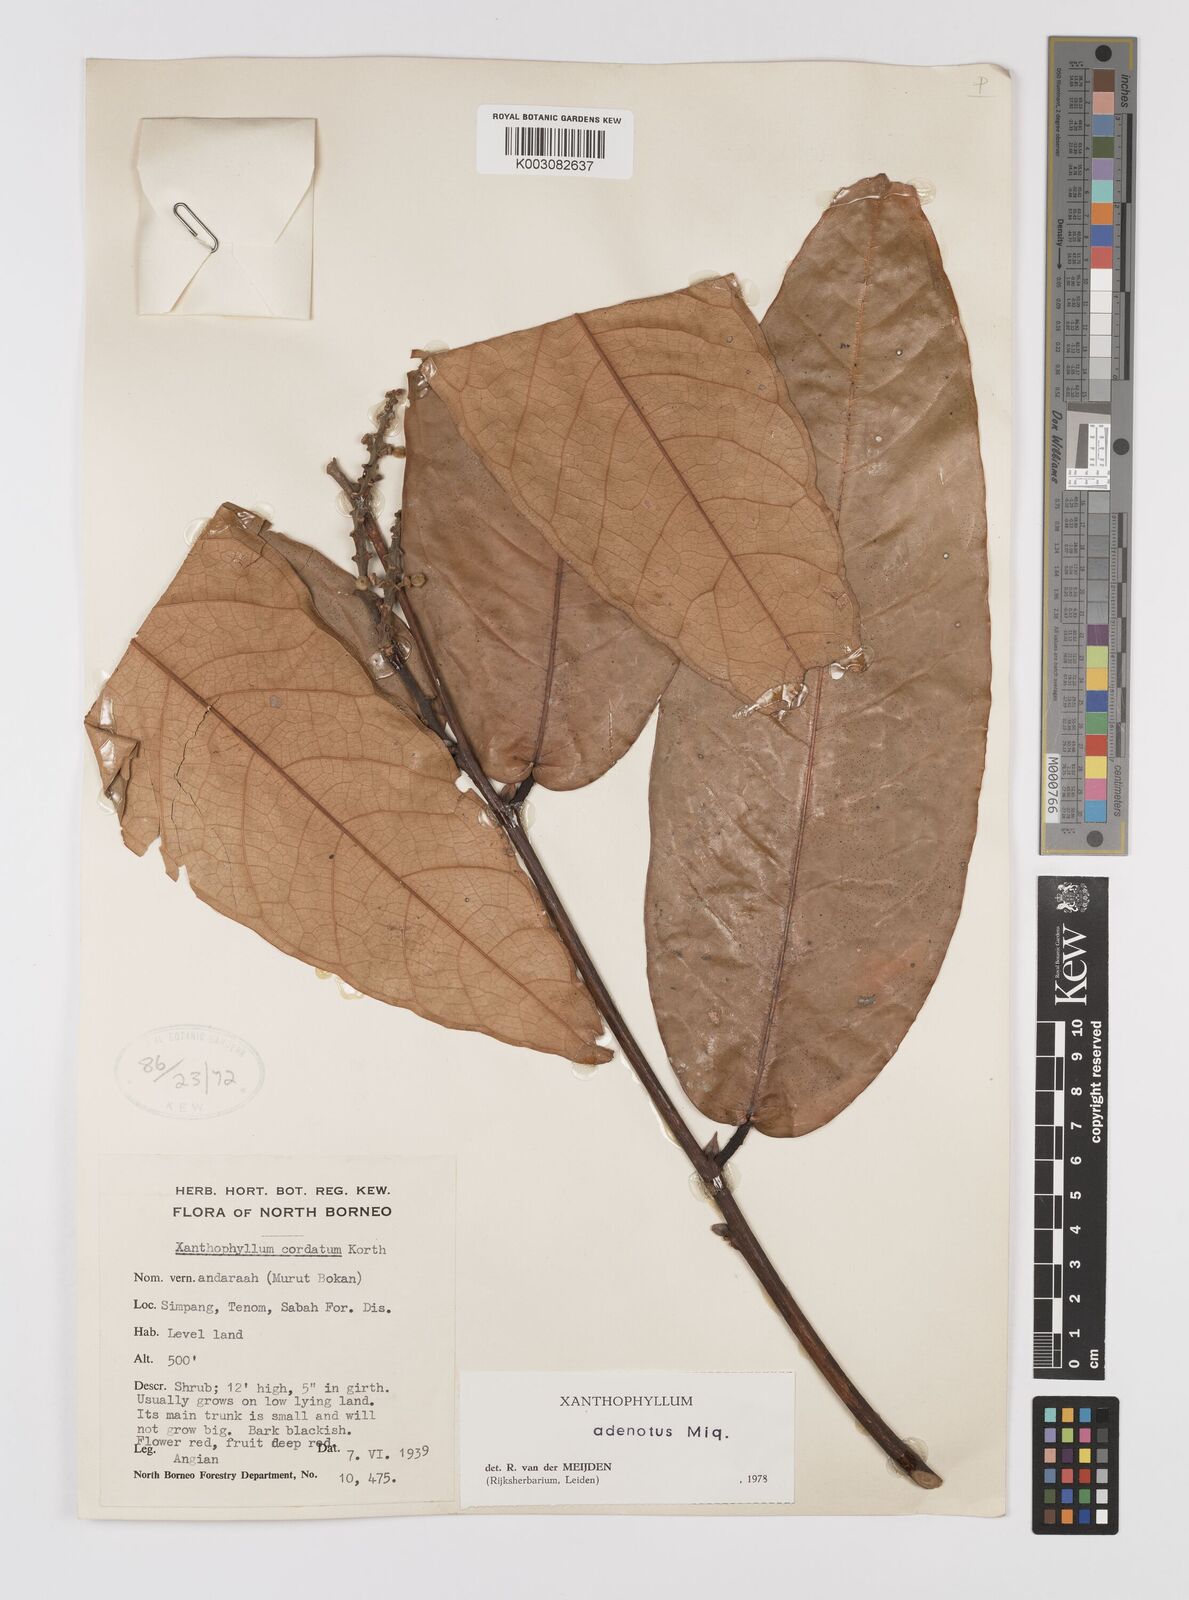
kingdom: Plantae
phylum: Tracheophyta
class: Magnoliopsida
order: Fabales
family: Polygalaceae
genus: Xanthophyllum
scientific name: Xanthophyllum adenotus
